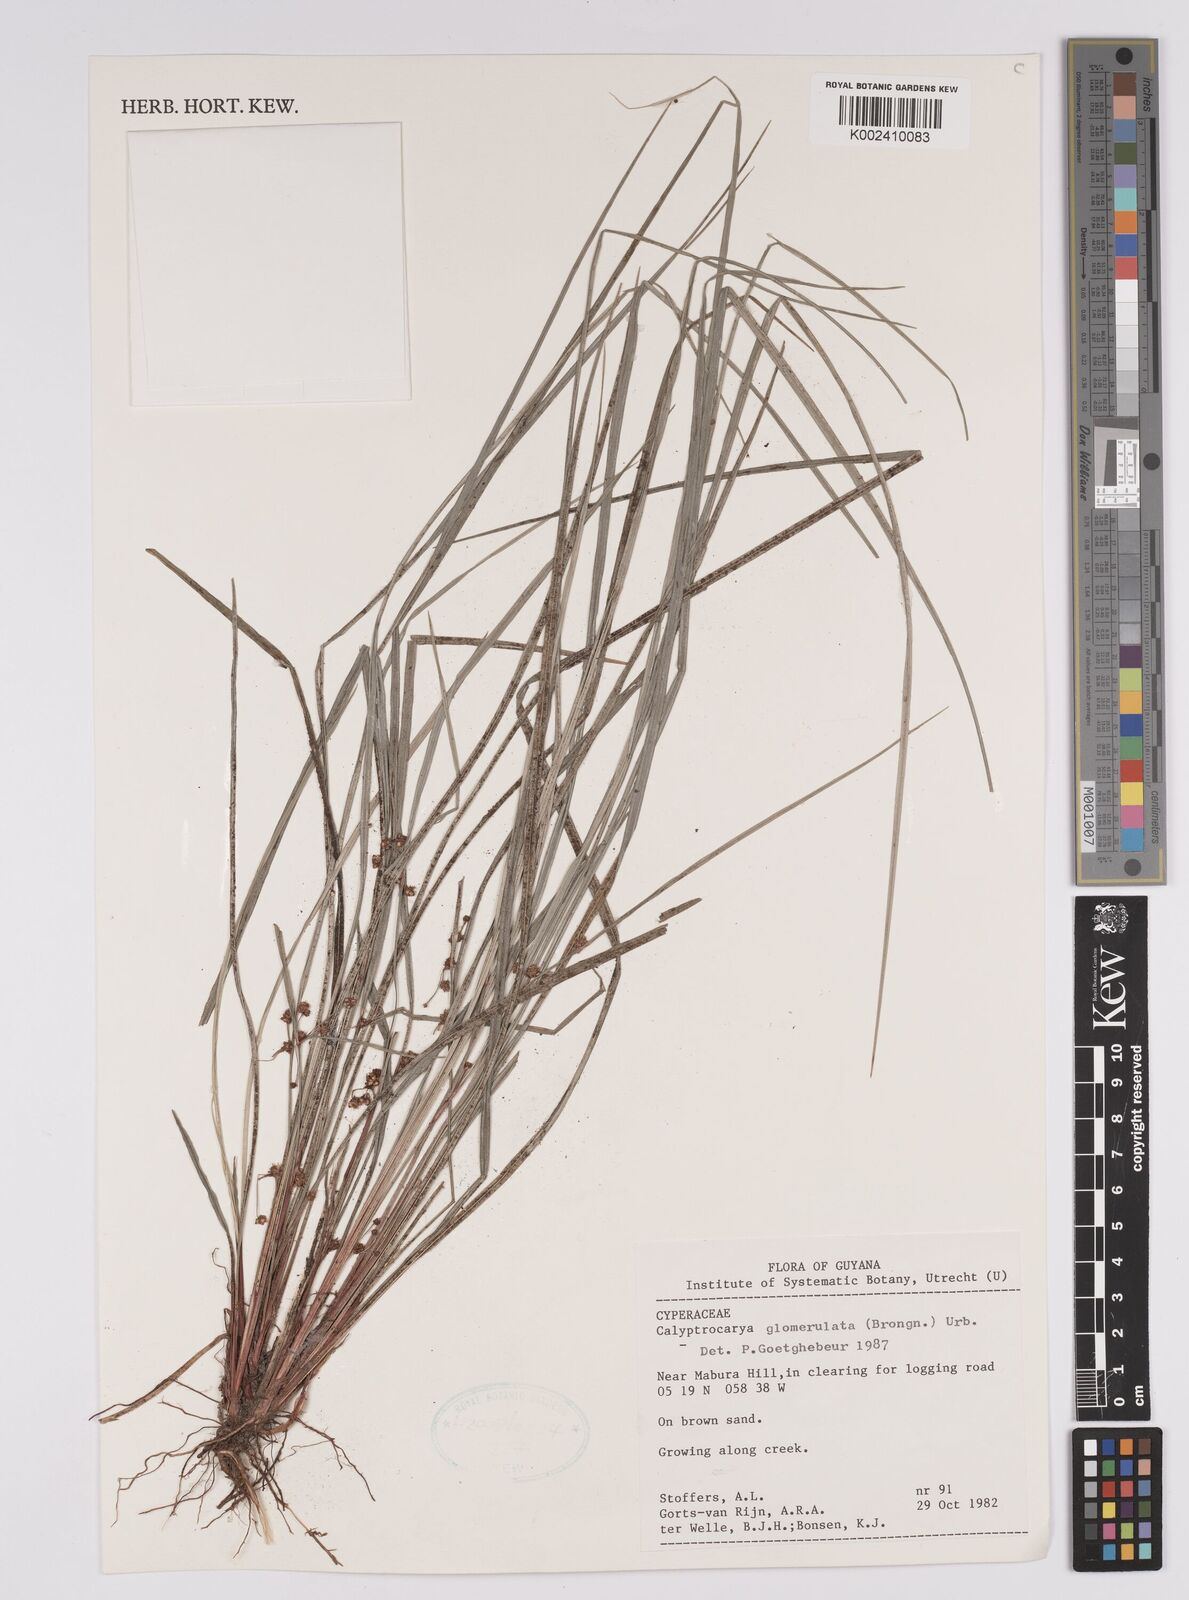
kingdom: Plantae
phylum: Tracheophyta
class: Liliopsida
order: Poales
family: Cyperaceae
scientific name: Cyperaceae
